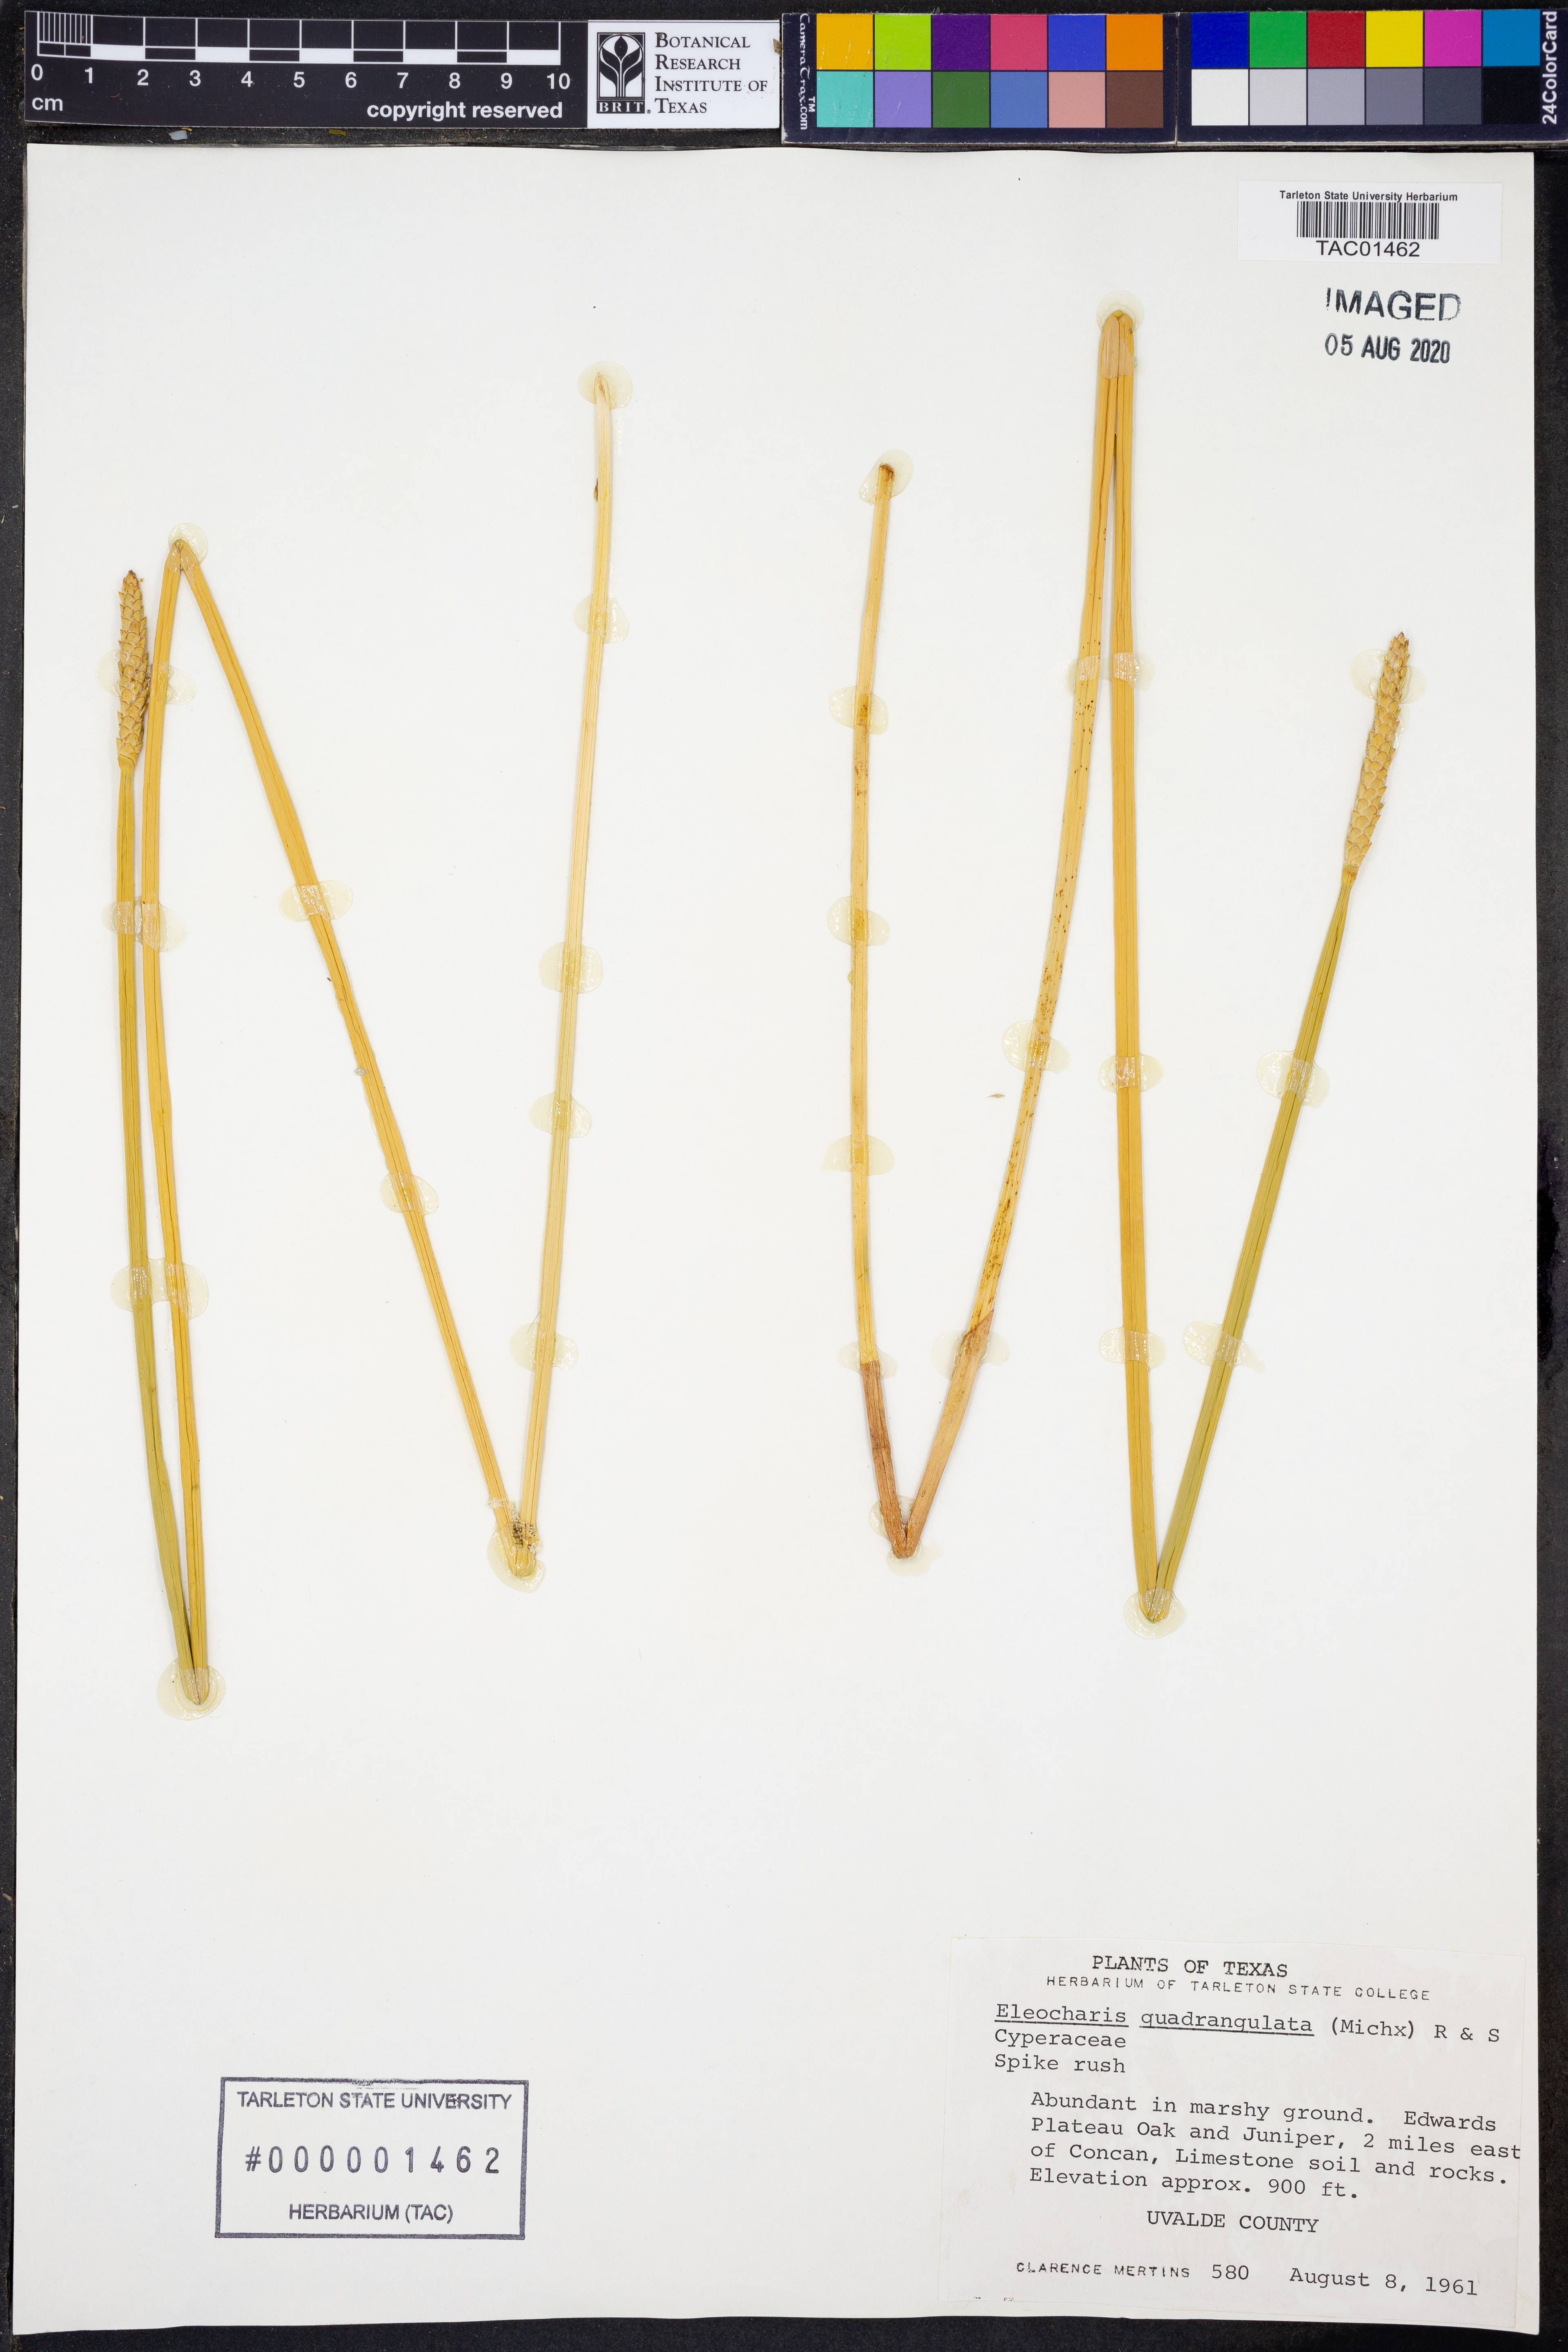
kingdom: Plantae
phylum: Tracheophyta
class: Liliopsida
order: Poales
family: Cyperaceae
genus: Eleocharis
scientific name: Eleocharis quadrangulata
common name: Square-stem spike-rush
